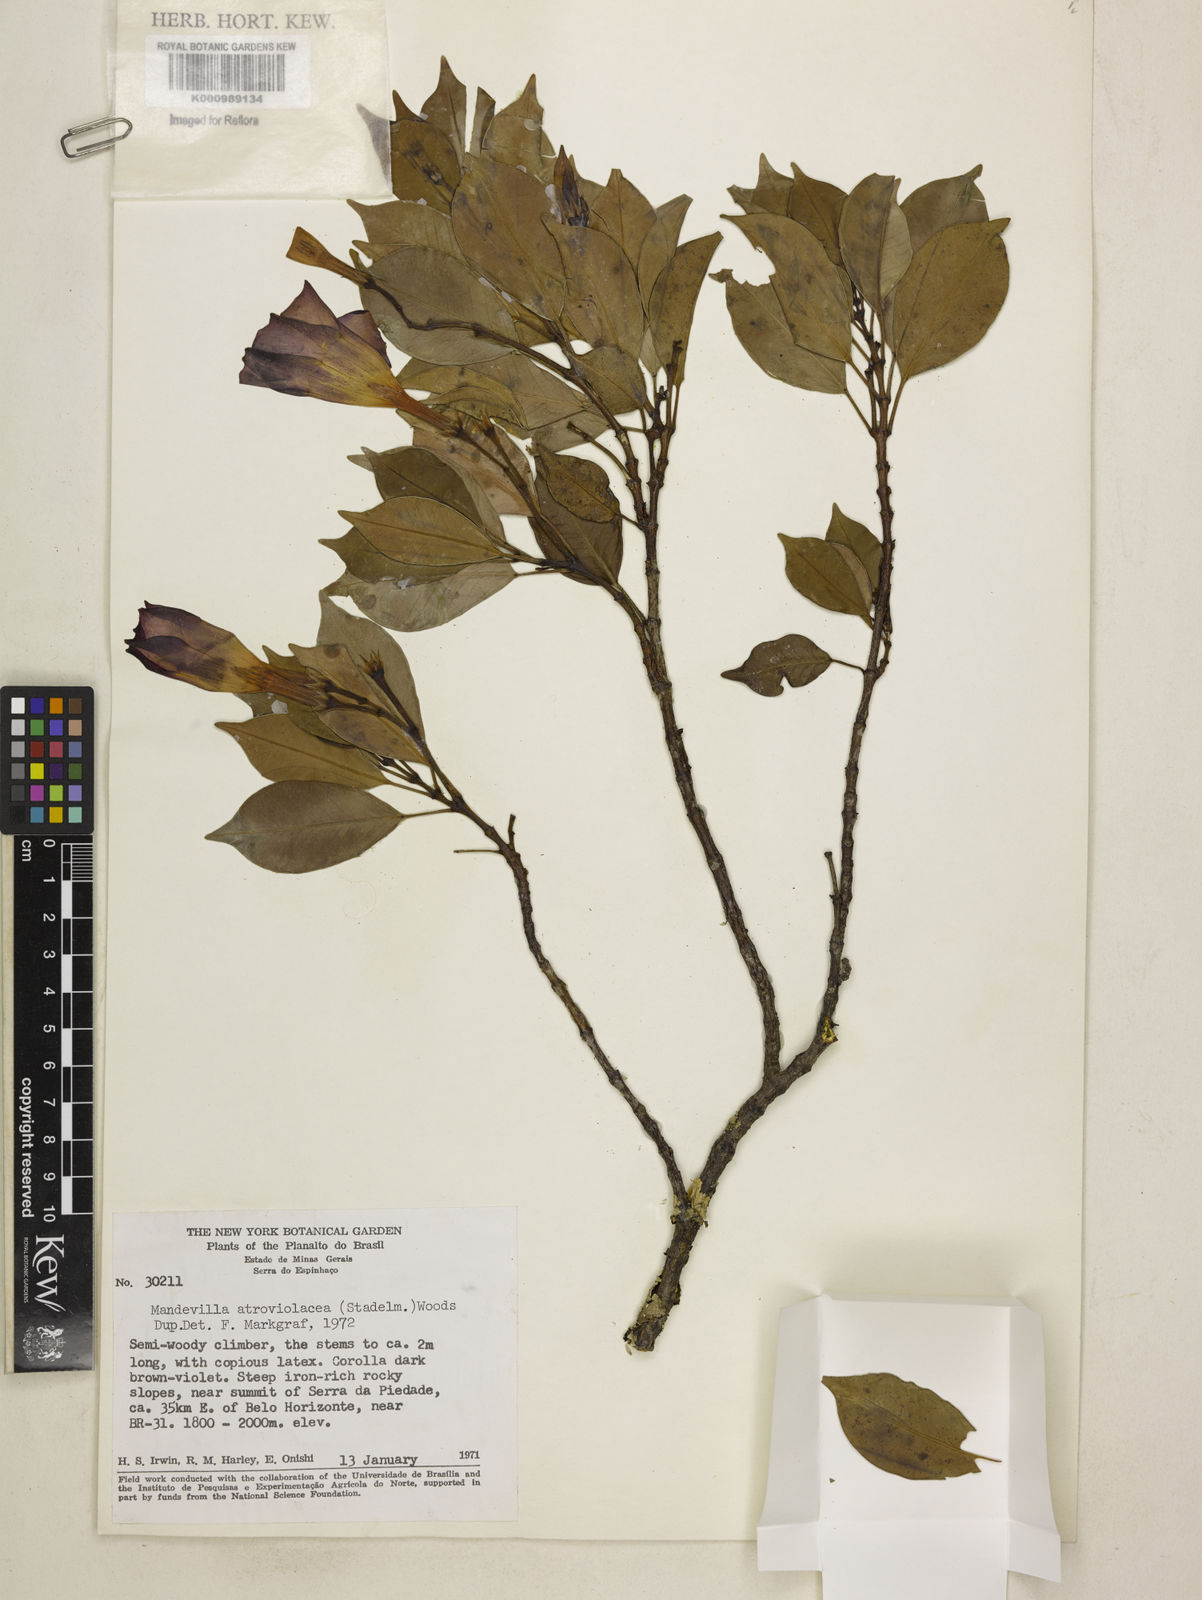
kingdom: Plantae
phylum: Tracheophyta
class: Magnoliopsida
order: Gentianales
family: Apocynaceae
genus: Mandevilla
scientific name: Mandevilla atroviolacea
